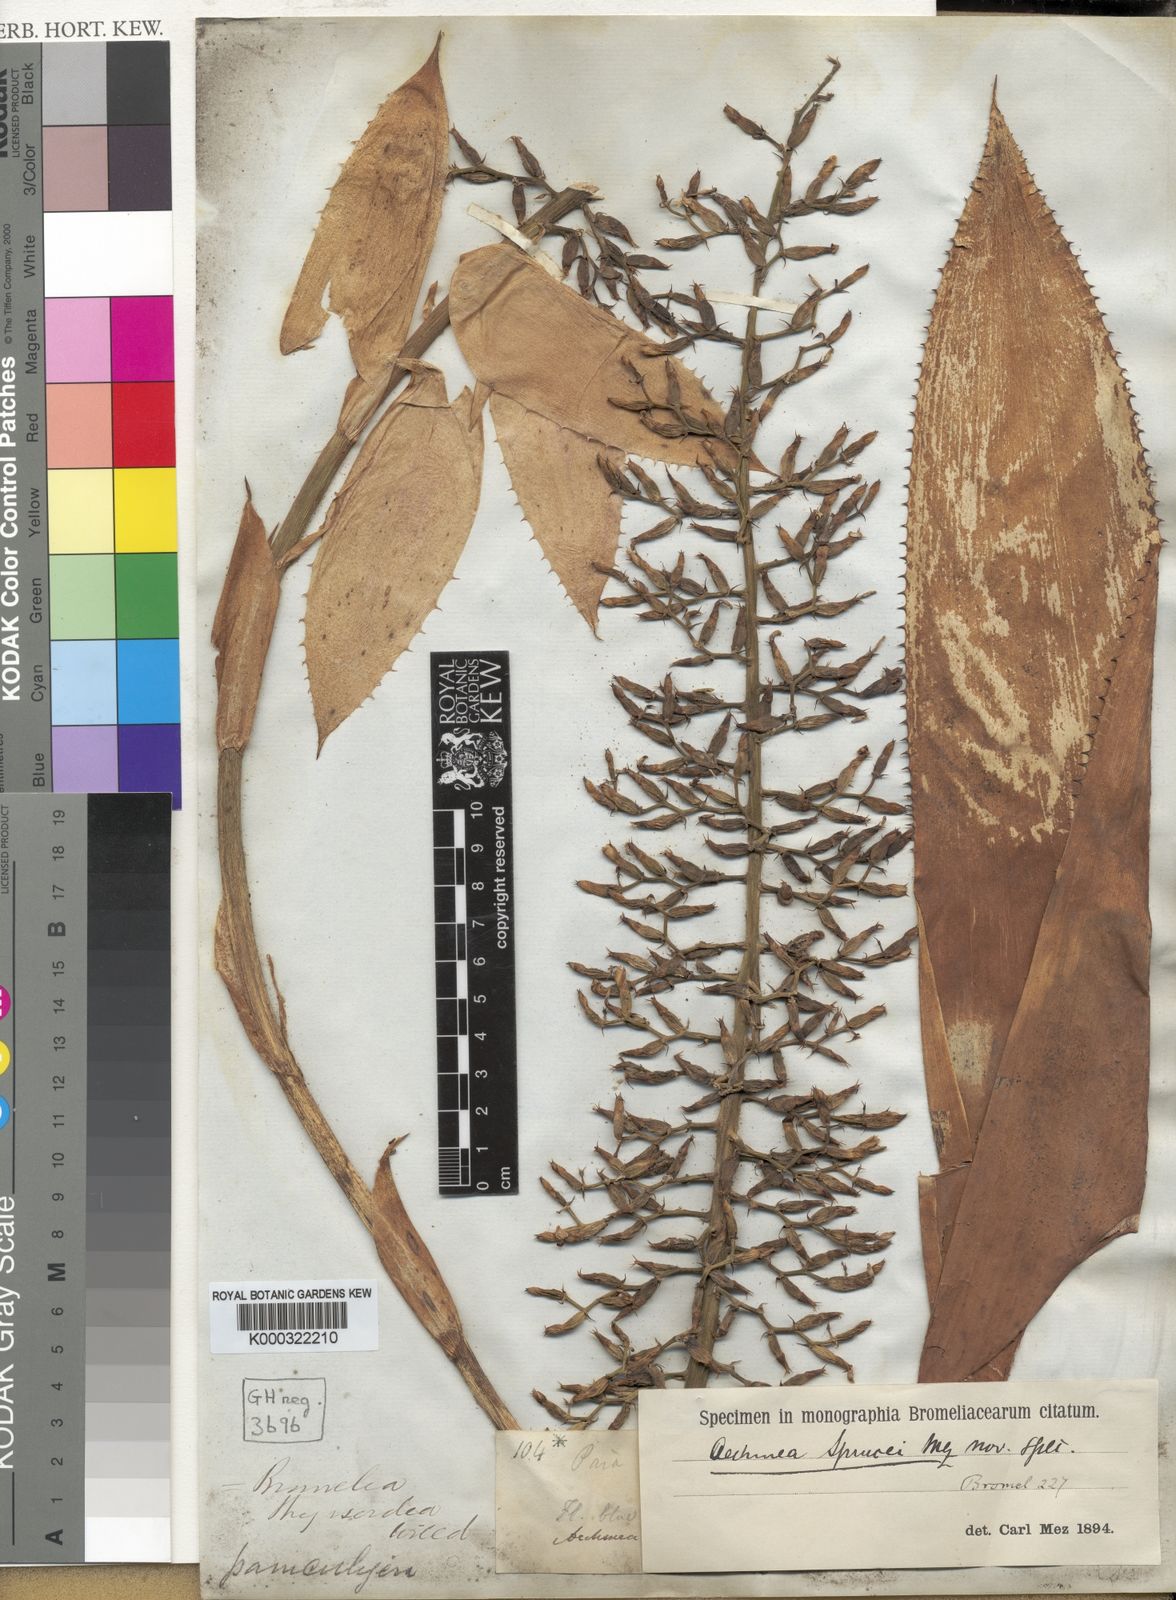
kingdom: Plantae
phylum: Tracheophyta
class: Liliopsida
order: Poales
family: Bromeliaceae
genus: Aechmea
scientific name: Aechmea castelnavii
